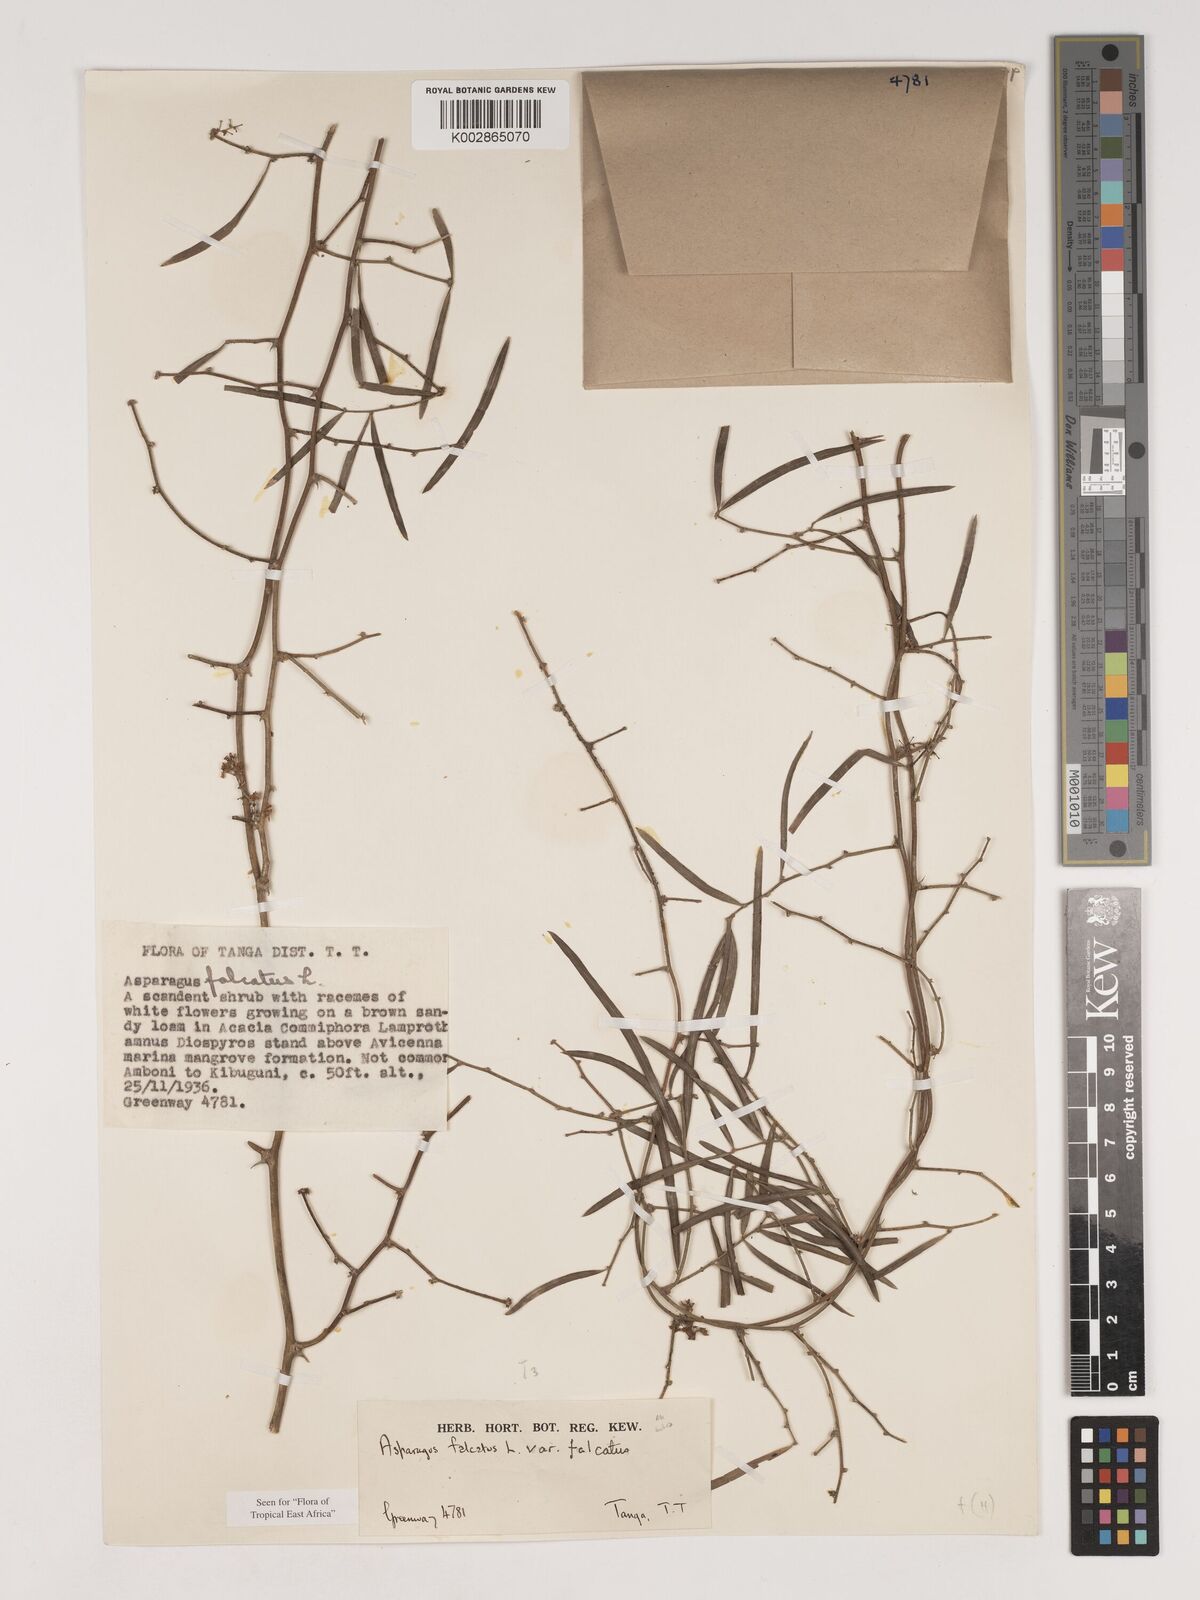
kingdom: Plantae
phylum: Tracheophyta
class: Liliopsida
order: Asparagales
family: Asparagaceae
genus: Asparagus
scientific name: Asparagus falcatus
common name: Asparagus
